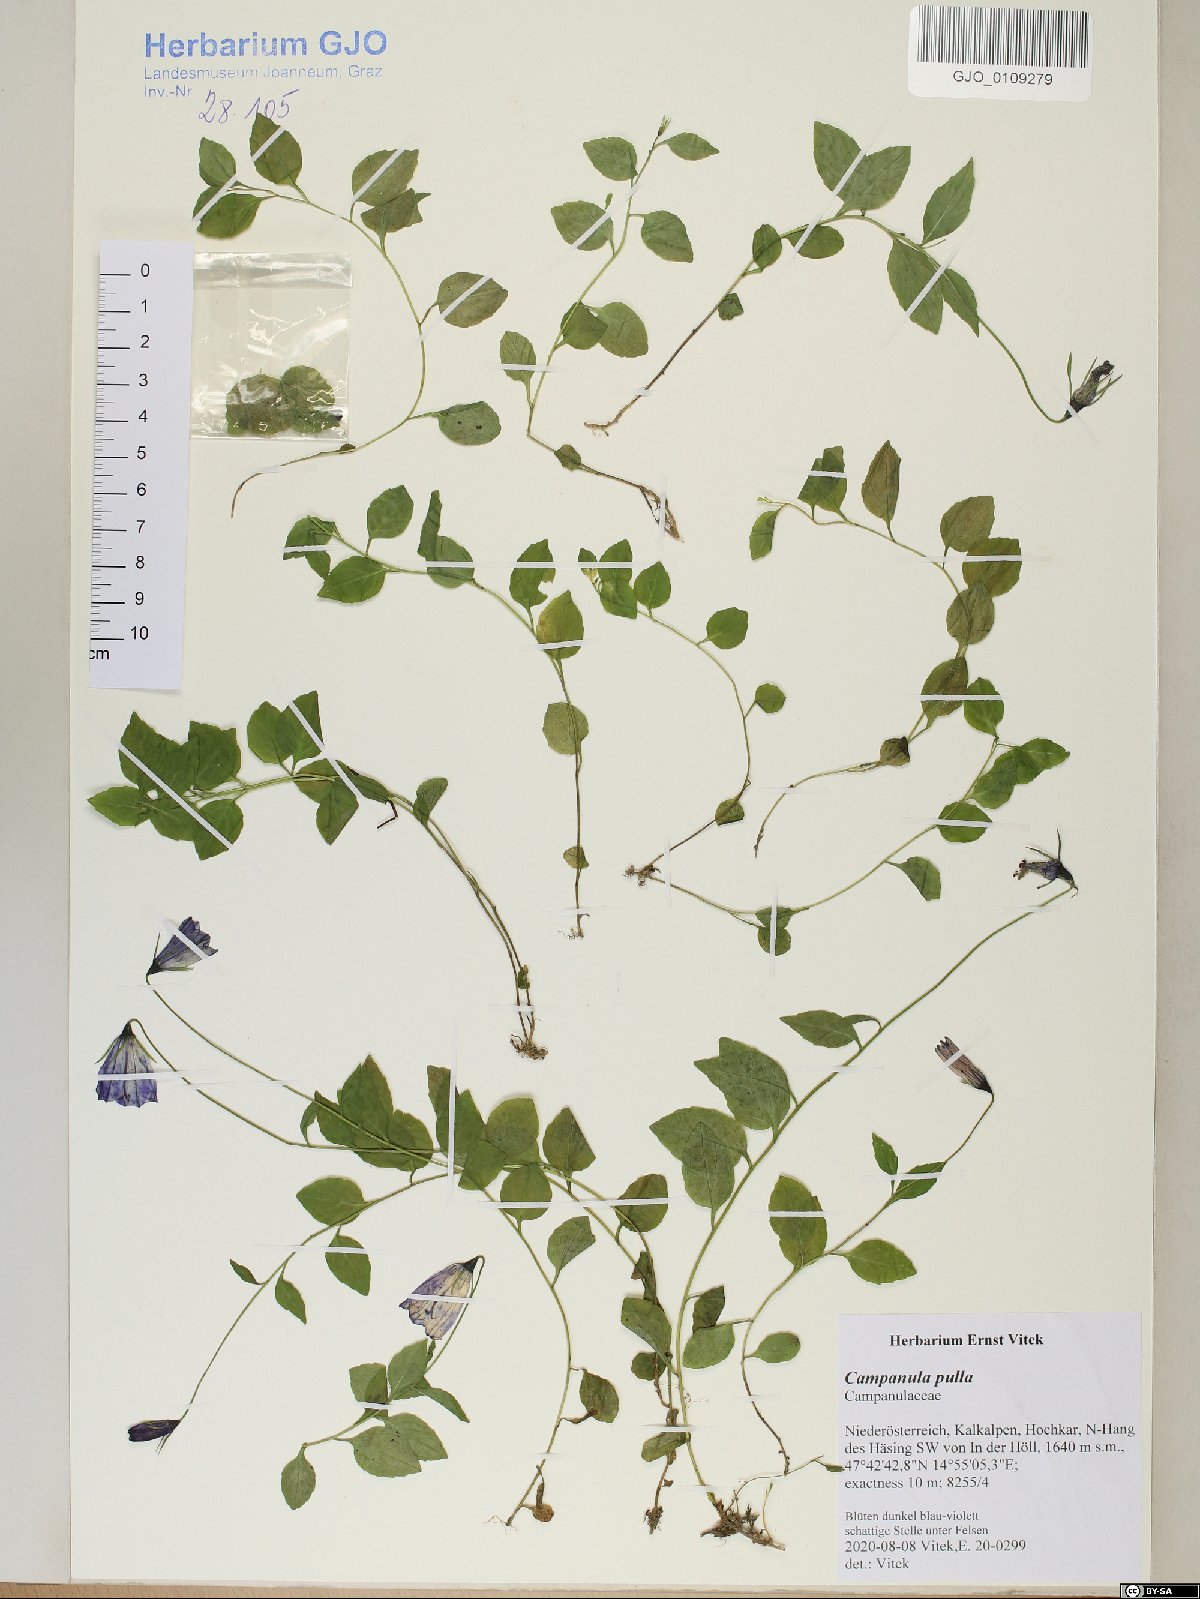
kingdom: Plantae
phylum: Tracheophyta
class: Magnoliopsida
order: Asterales
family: Campanulaceae
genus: Campanula
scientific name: Campanula pulla
